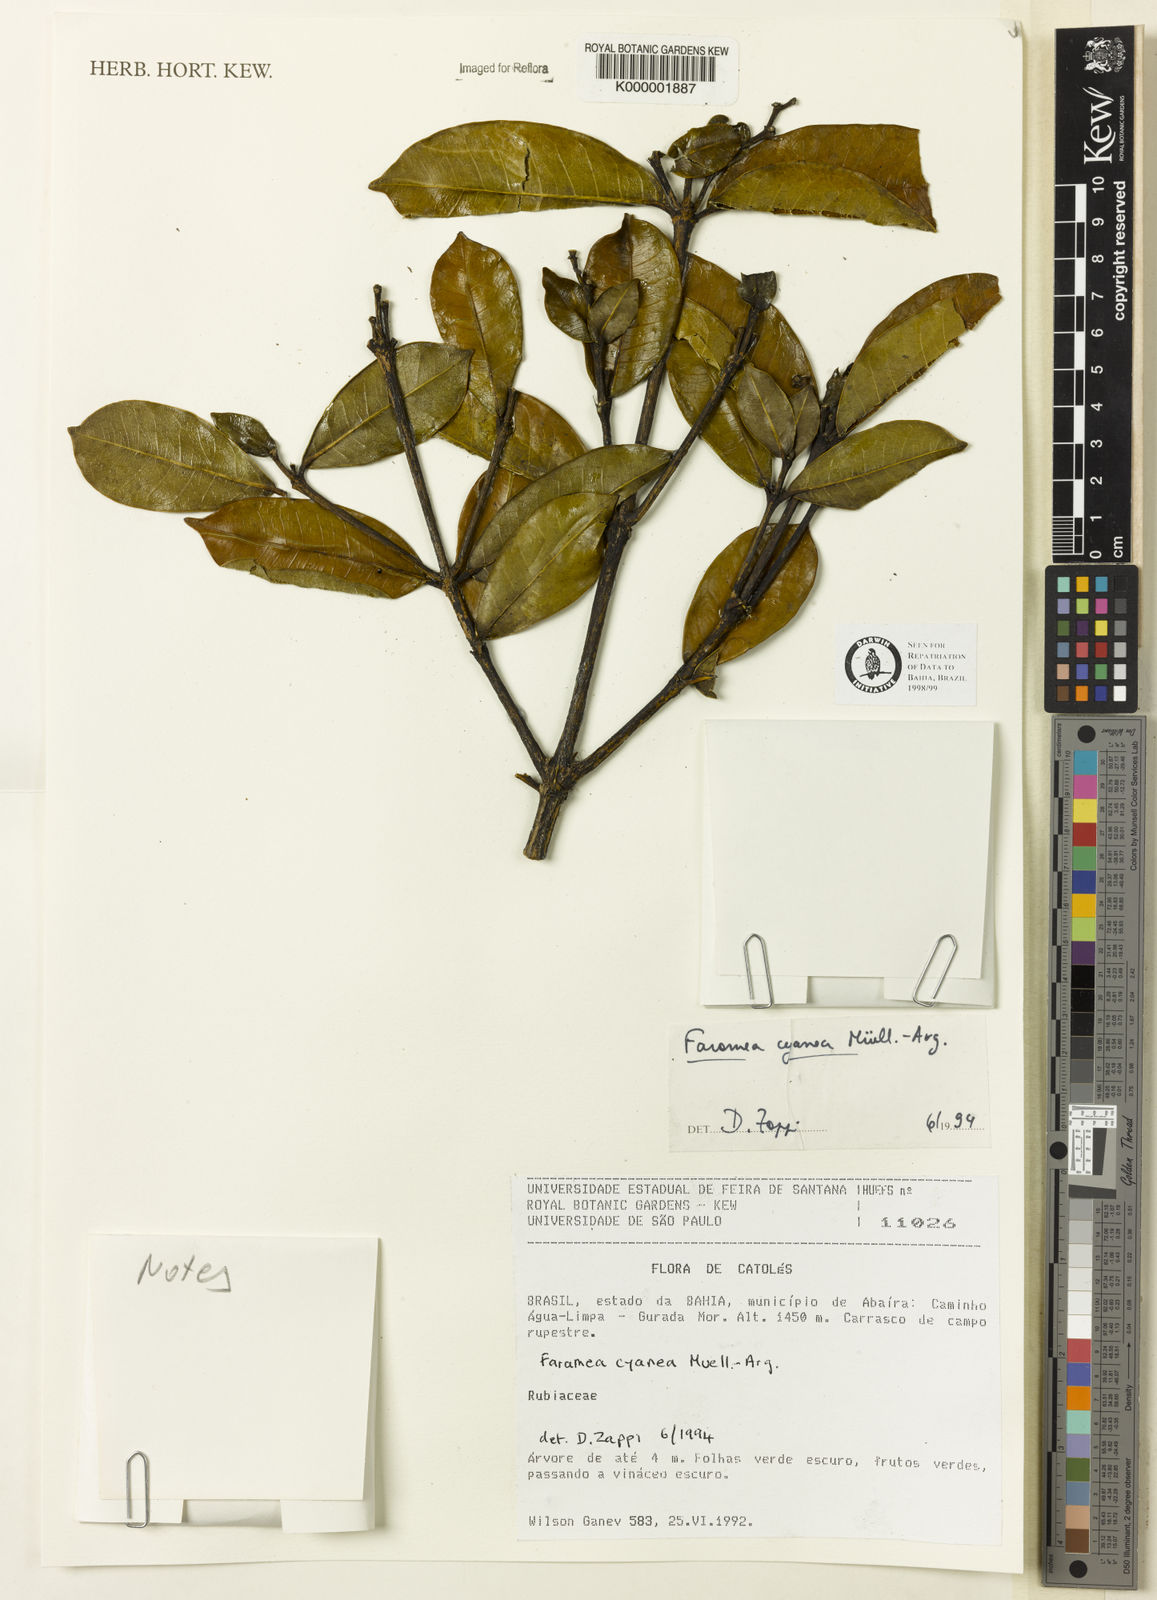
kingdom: Plantae
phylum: Tracheophyta
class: Magnoliopsida
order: Gentianales
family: Rubiaceae
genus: Faramea
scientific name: Faramea nigrescens
